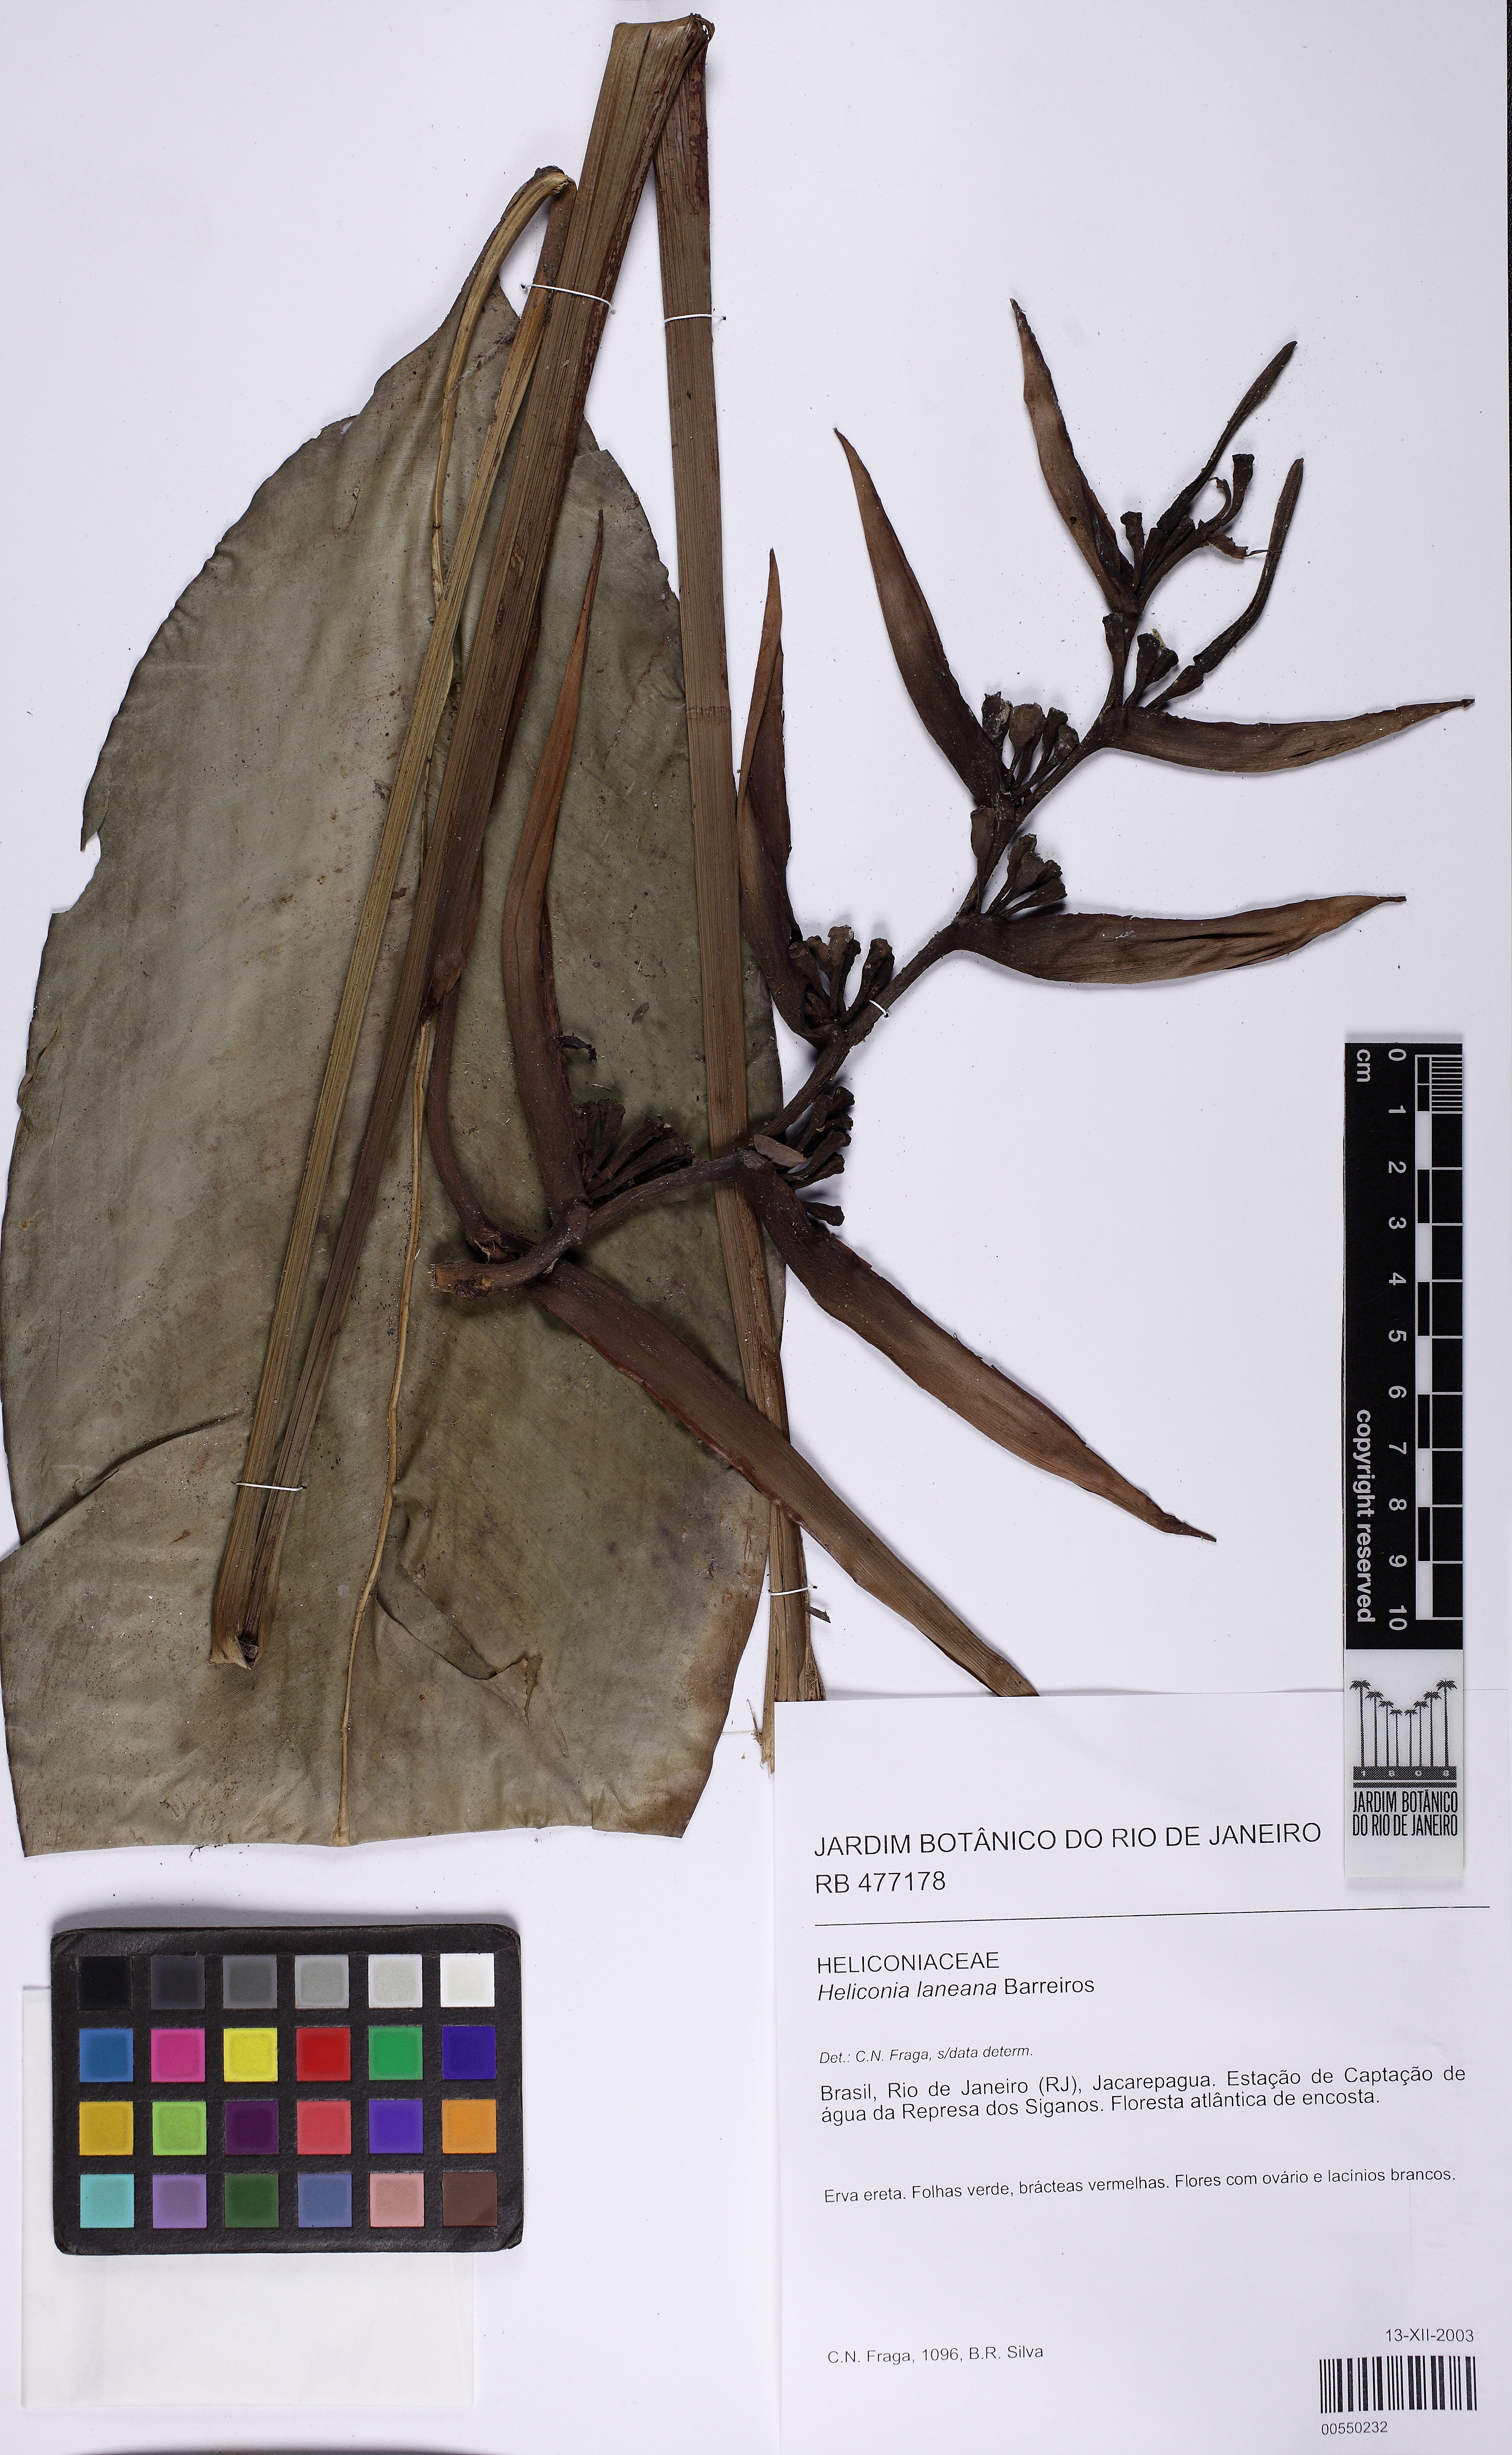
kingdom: Plantae
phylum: Tracheophyta
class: Liliopsida
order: Zingiberales
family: Heliconiaceae
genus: Heliconia
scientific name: Heliconia angusta
